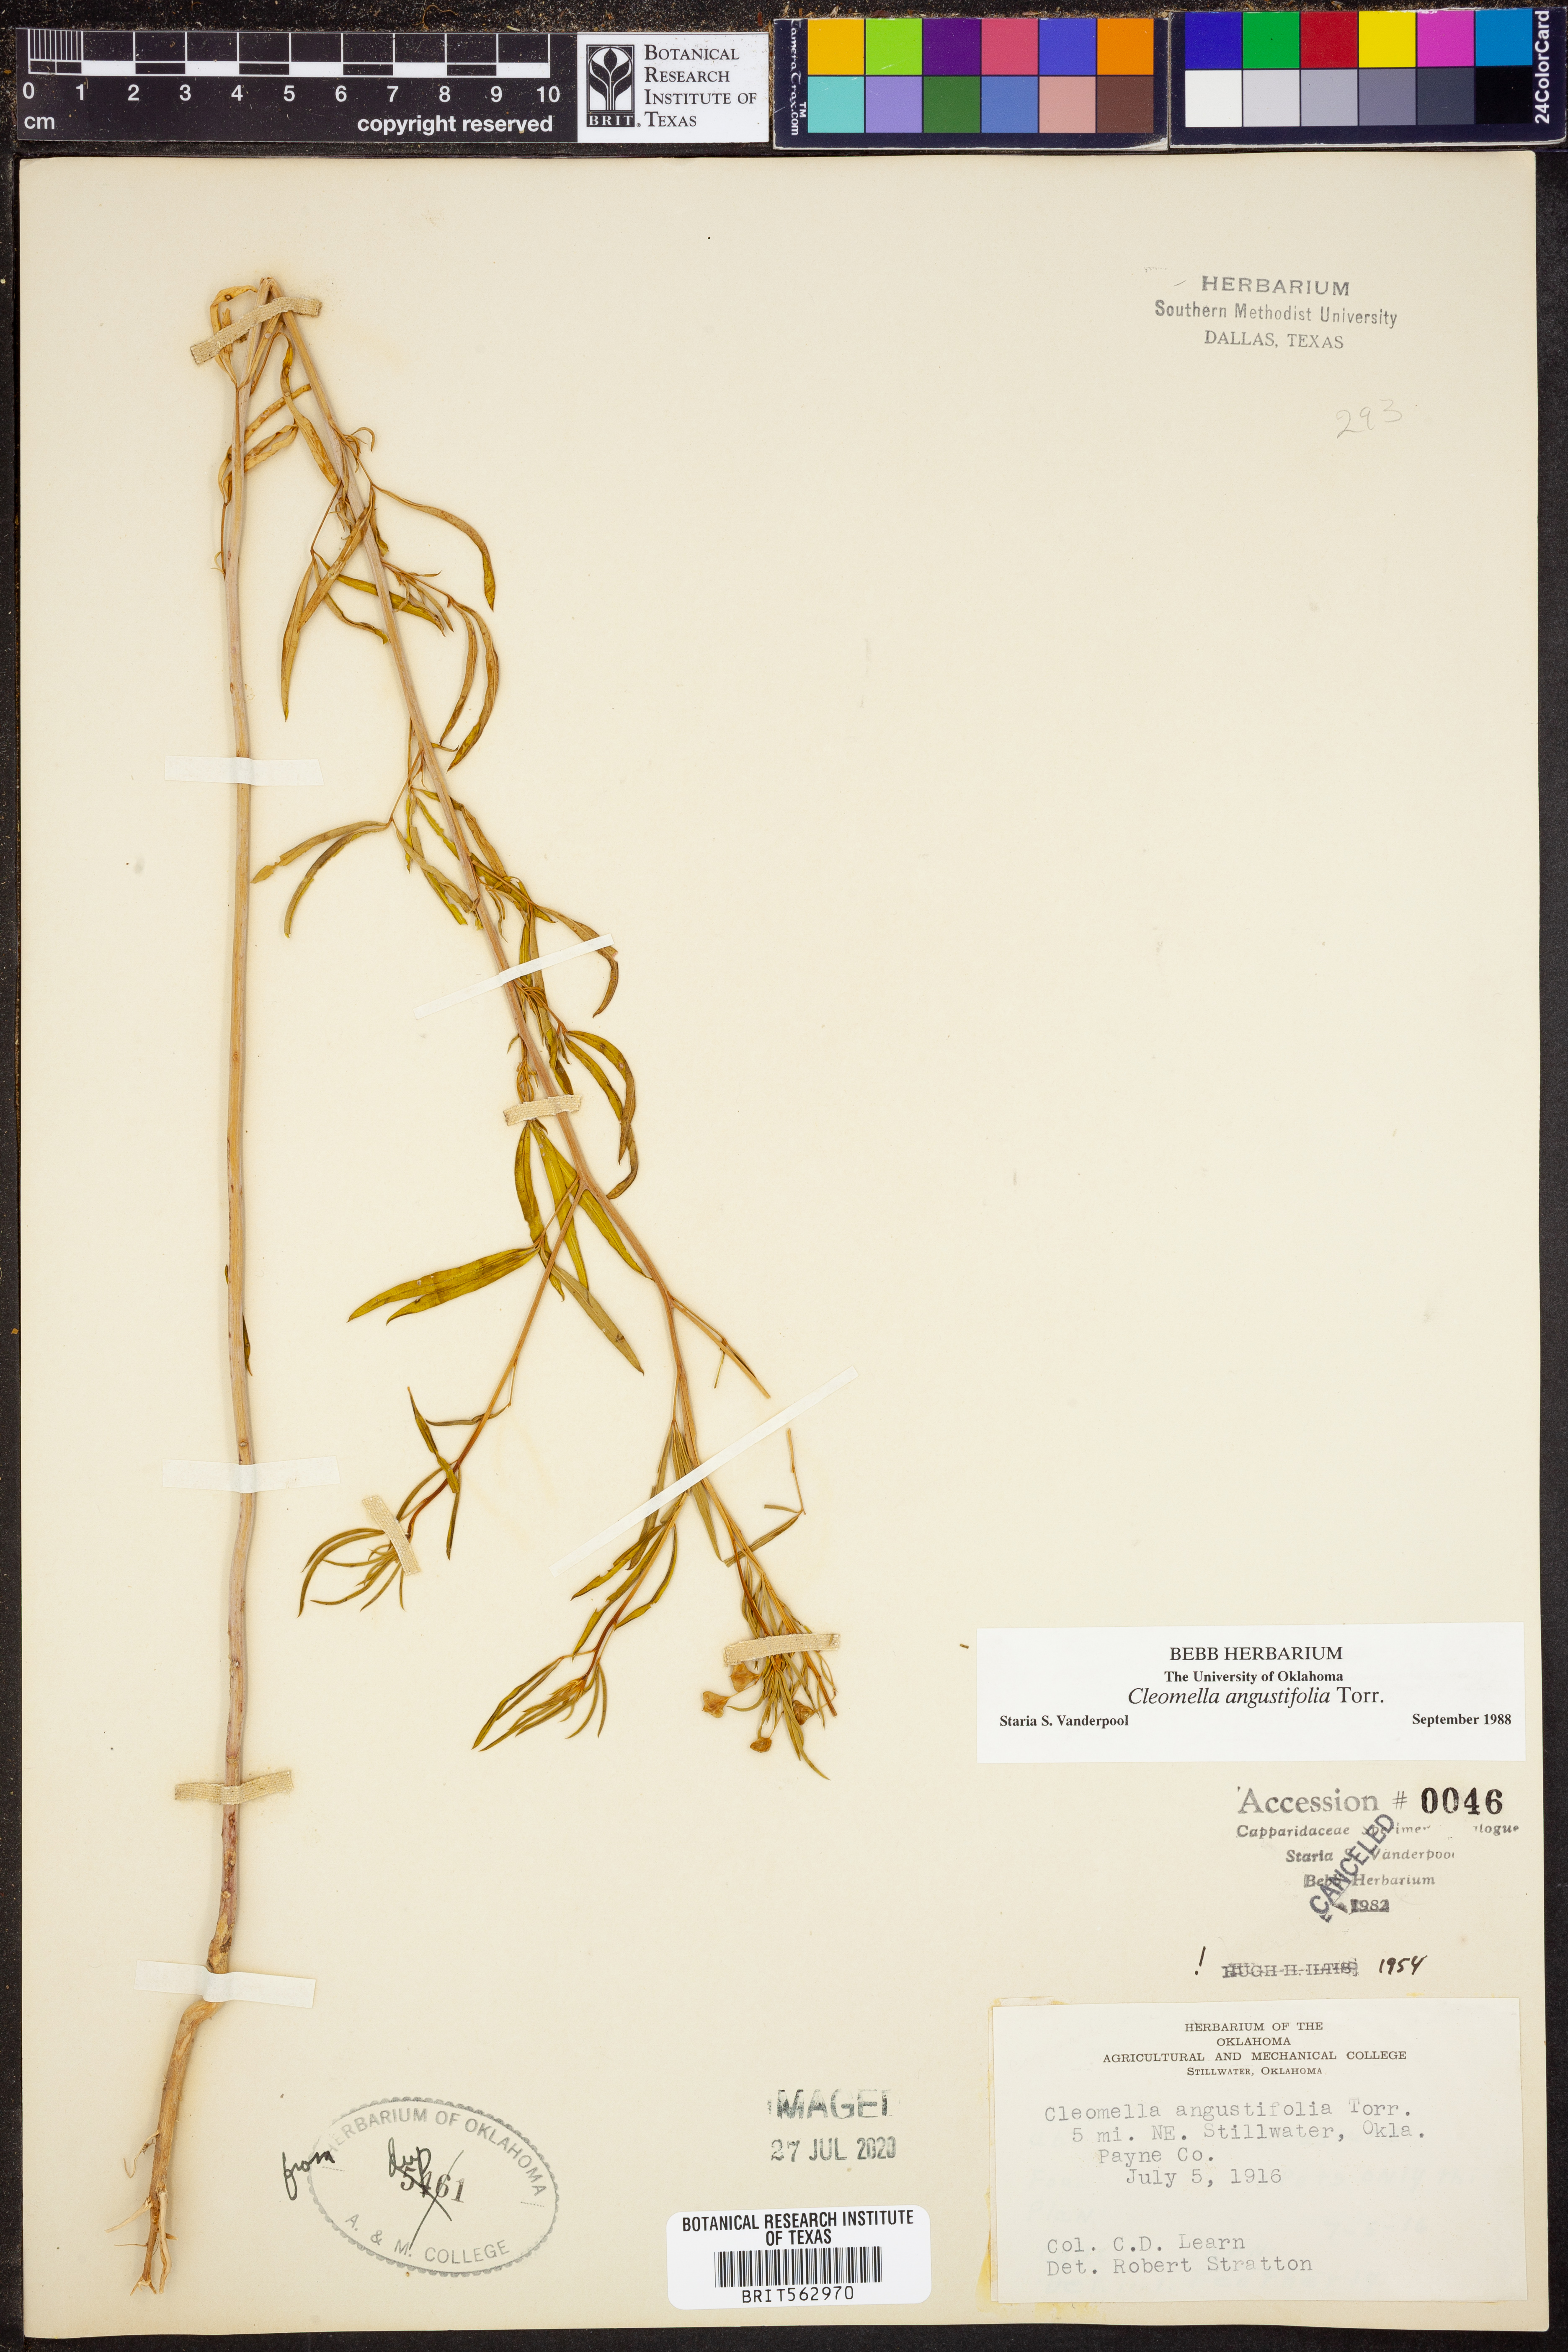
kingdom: Plantae
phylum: Tracheophyta
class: Magnoliopsida
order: Brassicales
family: Cleomaceae
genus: Cleomella
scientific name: Cleomella angustifolia
